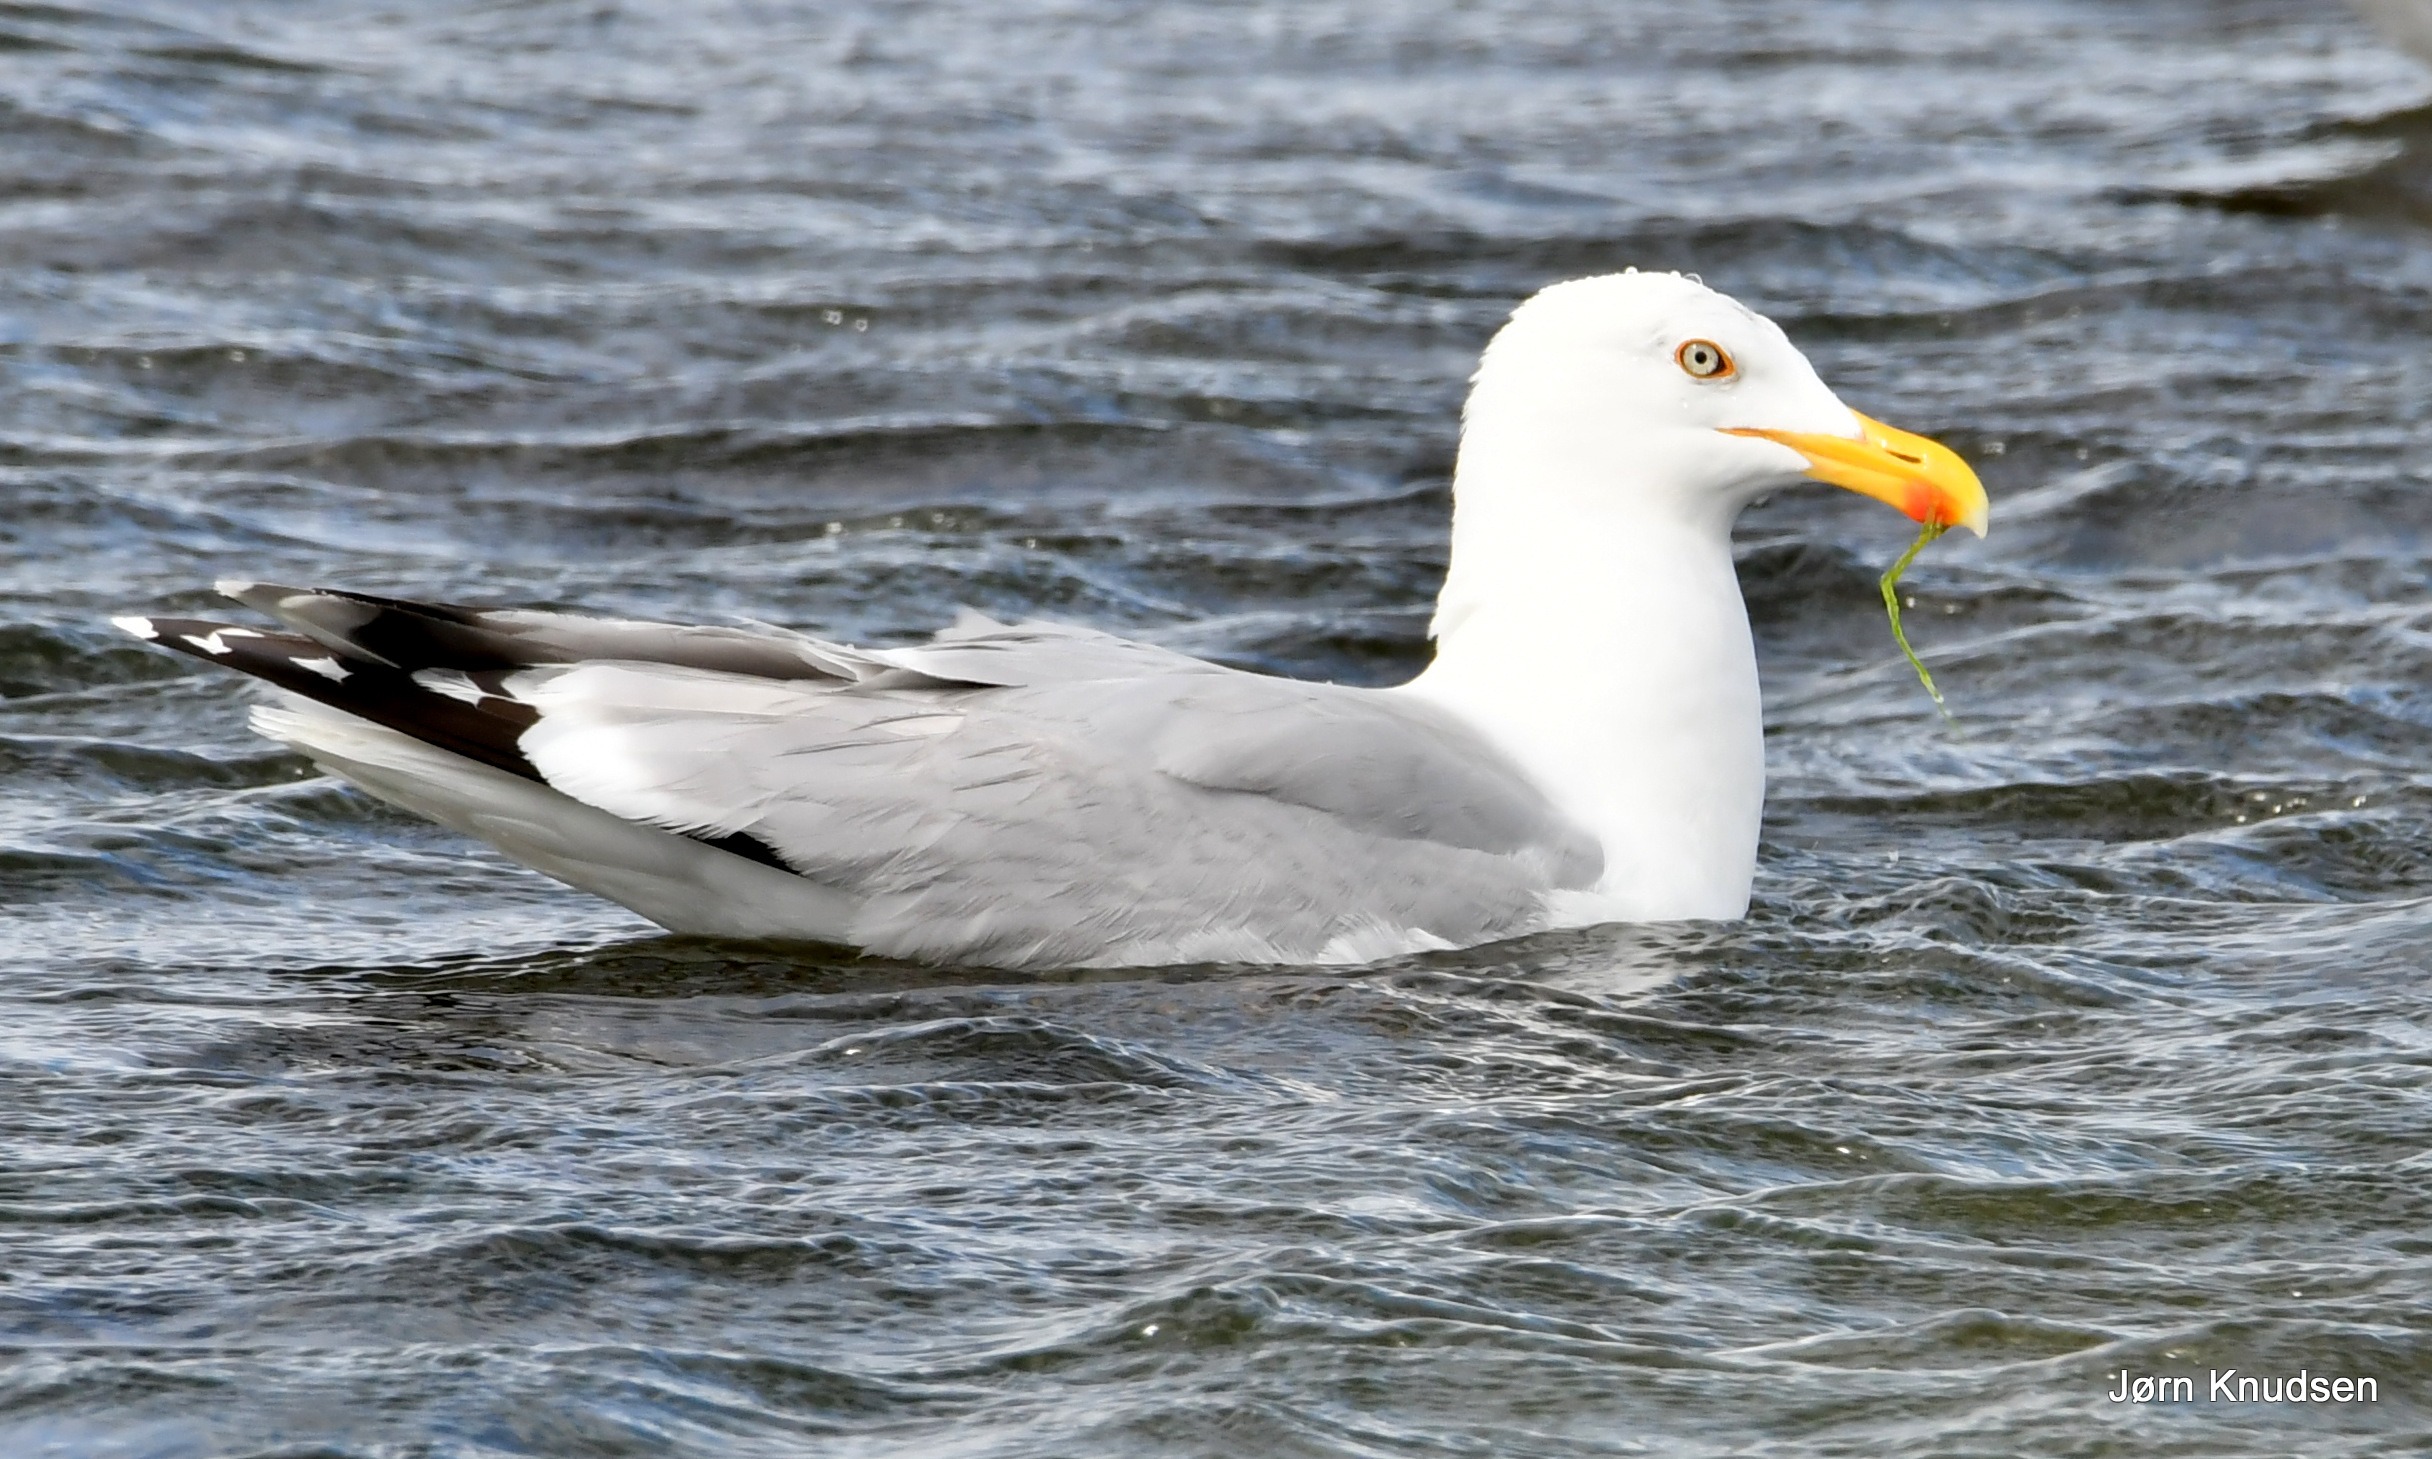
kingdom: Animalia
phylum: Chordata
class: Aves
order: Charadriiformes
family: Laridae
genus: Larus
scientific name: Larus argentatus
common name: Sølvmåge
